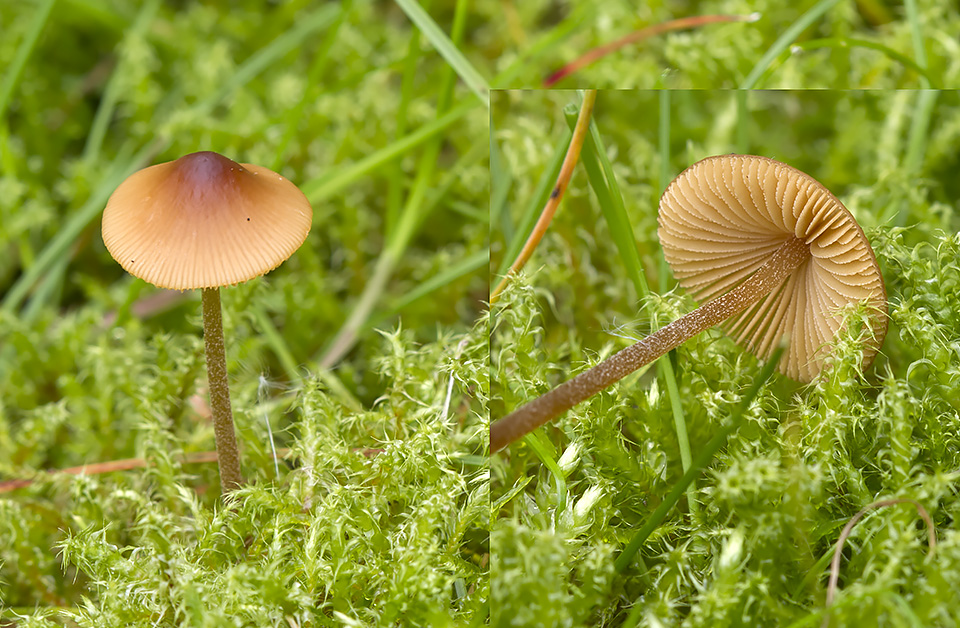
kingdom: Fungi
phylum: Basidiomycota
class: Agaricomycetes
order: Agaricales
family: Bolbitiaceae
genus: Conocybe
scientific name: Conocybe rickeniana
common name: kastaniebrun keglehat
